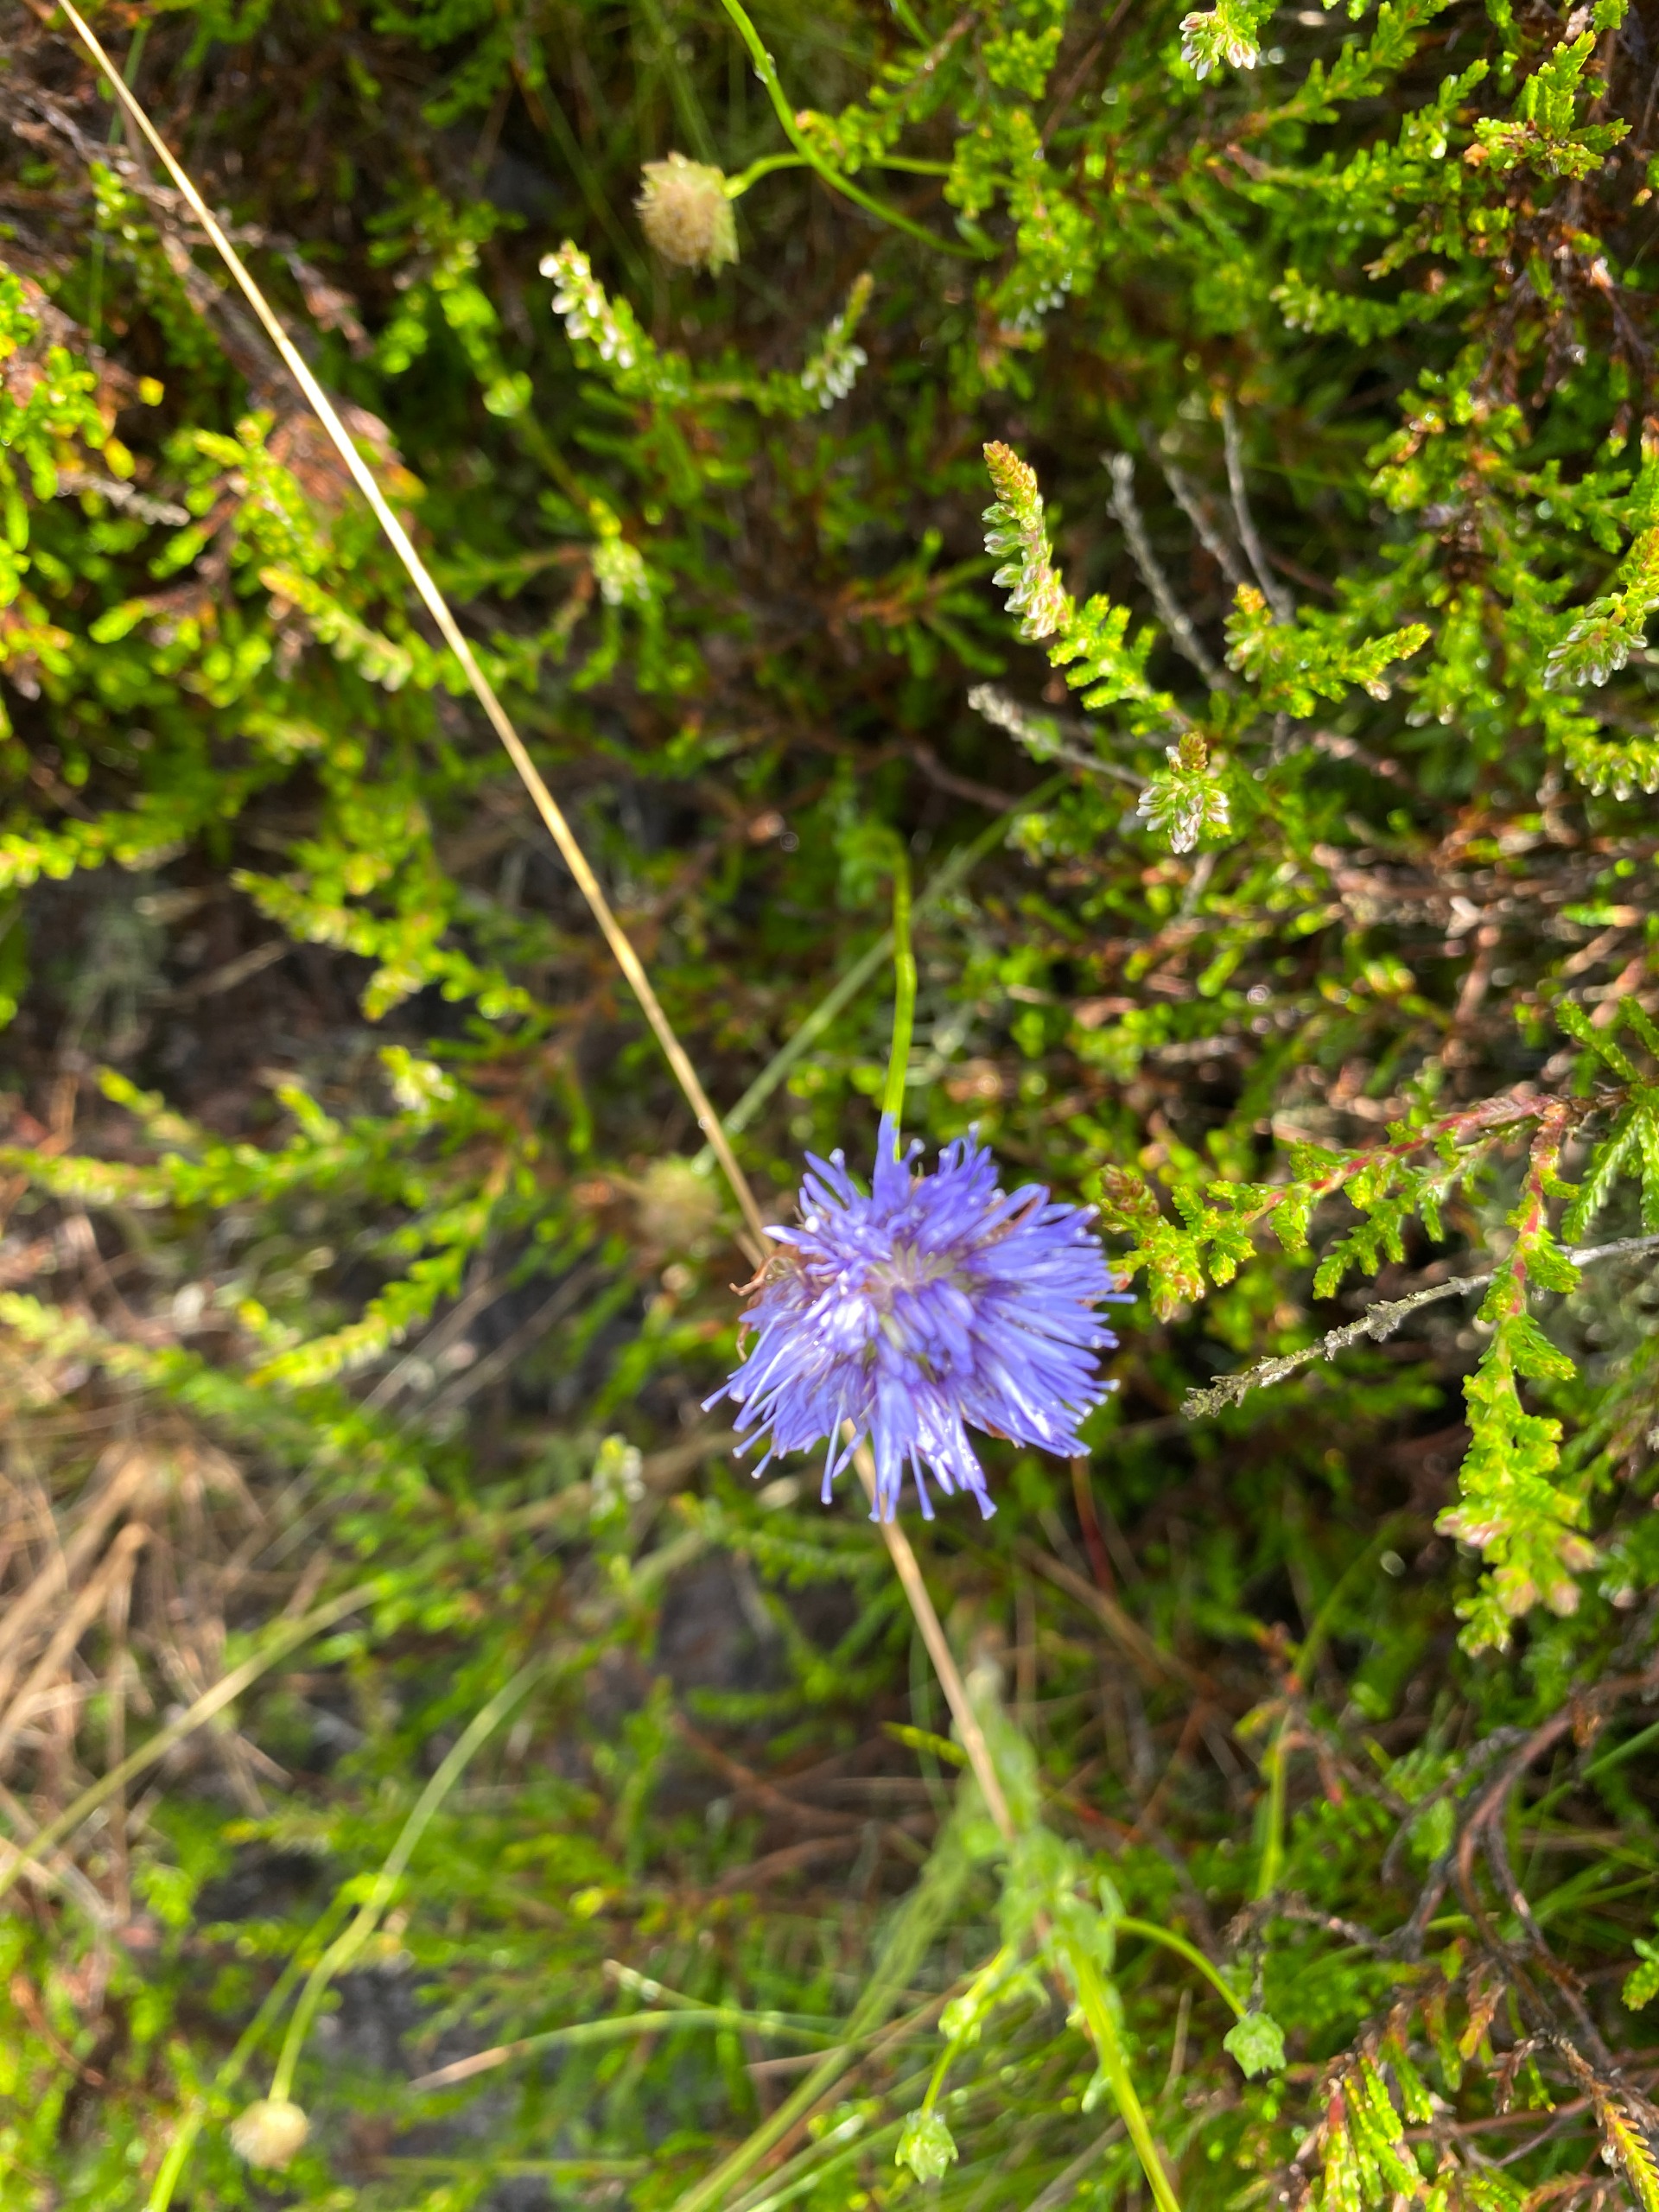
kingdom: Plantae
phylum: Tracheophyta
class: Magnoliopsida
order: Asterales
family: Campanulaceae
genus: Jasione
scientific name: Jasione montana
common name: Blåmunke
